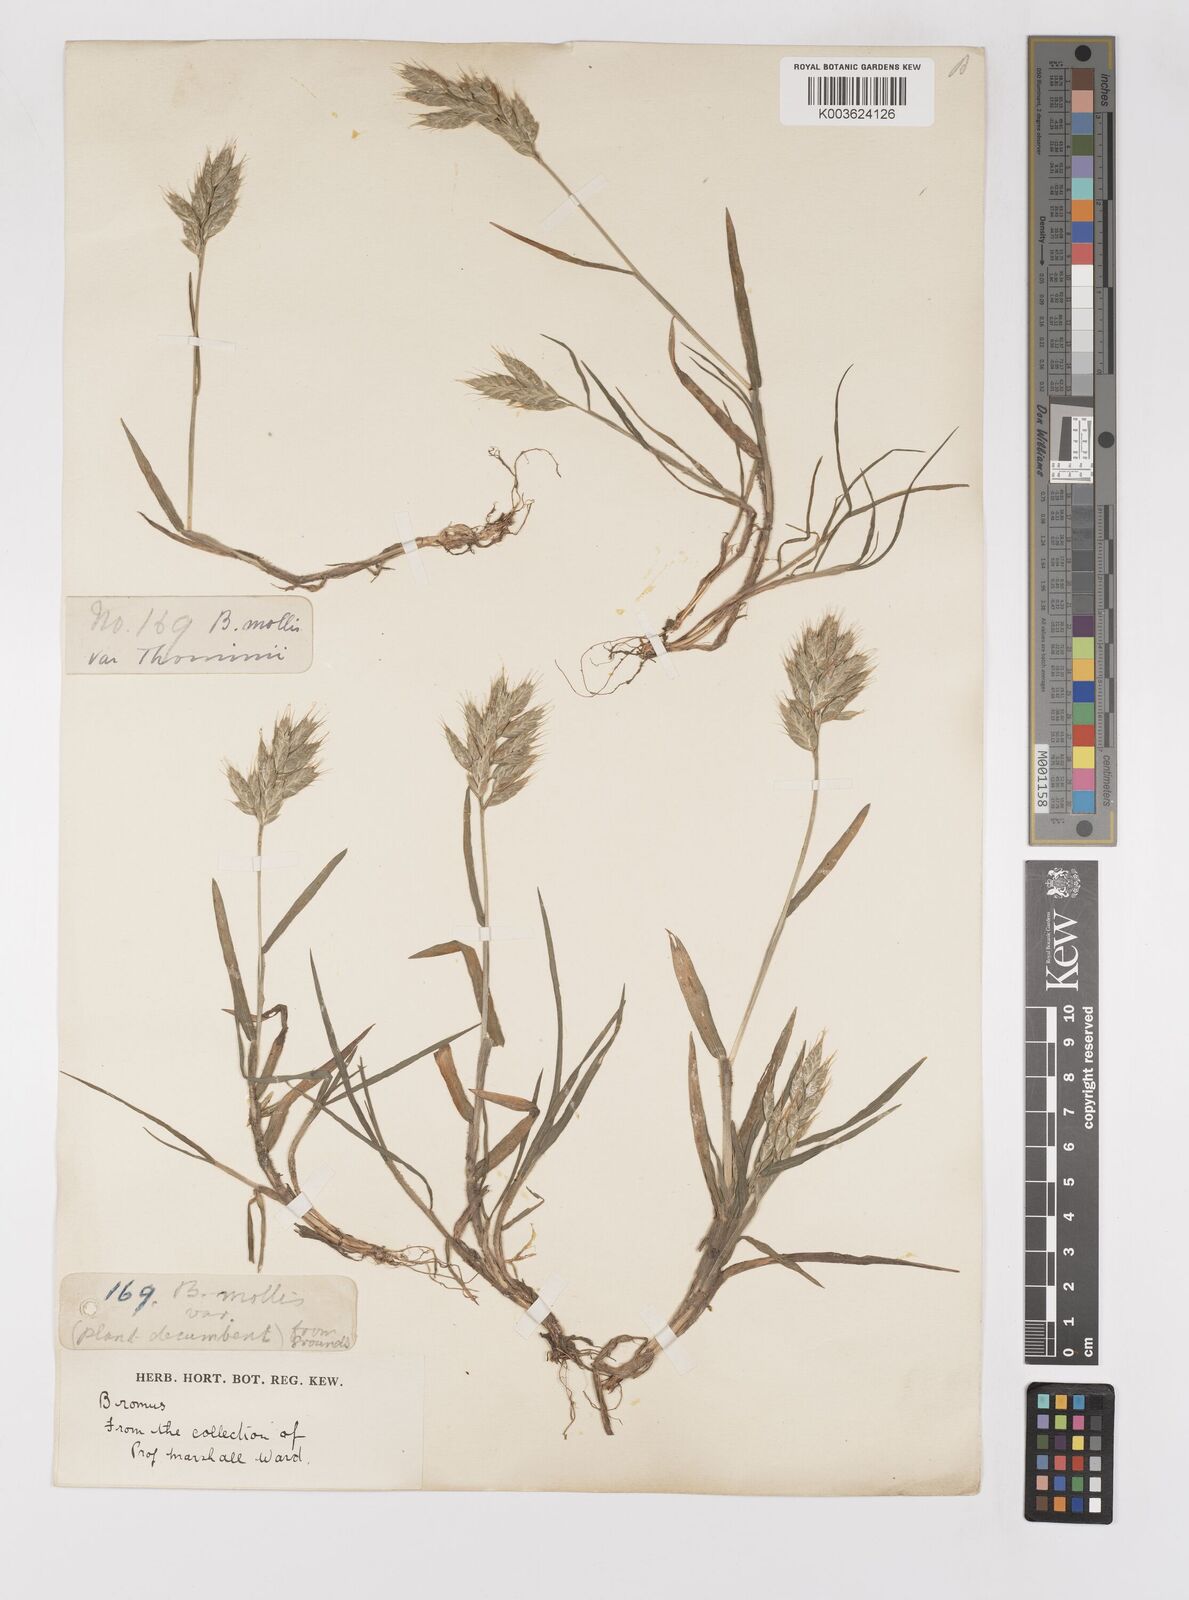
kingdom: Plantae
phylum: Tracheophyta
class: Liliopsida
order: Poales
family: Poaceae
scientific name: Poaceae
